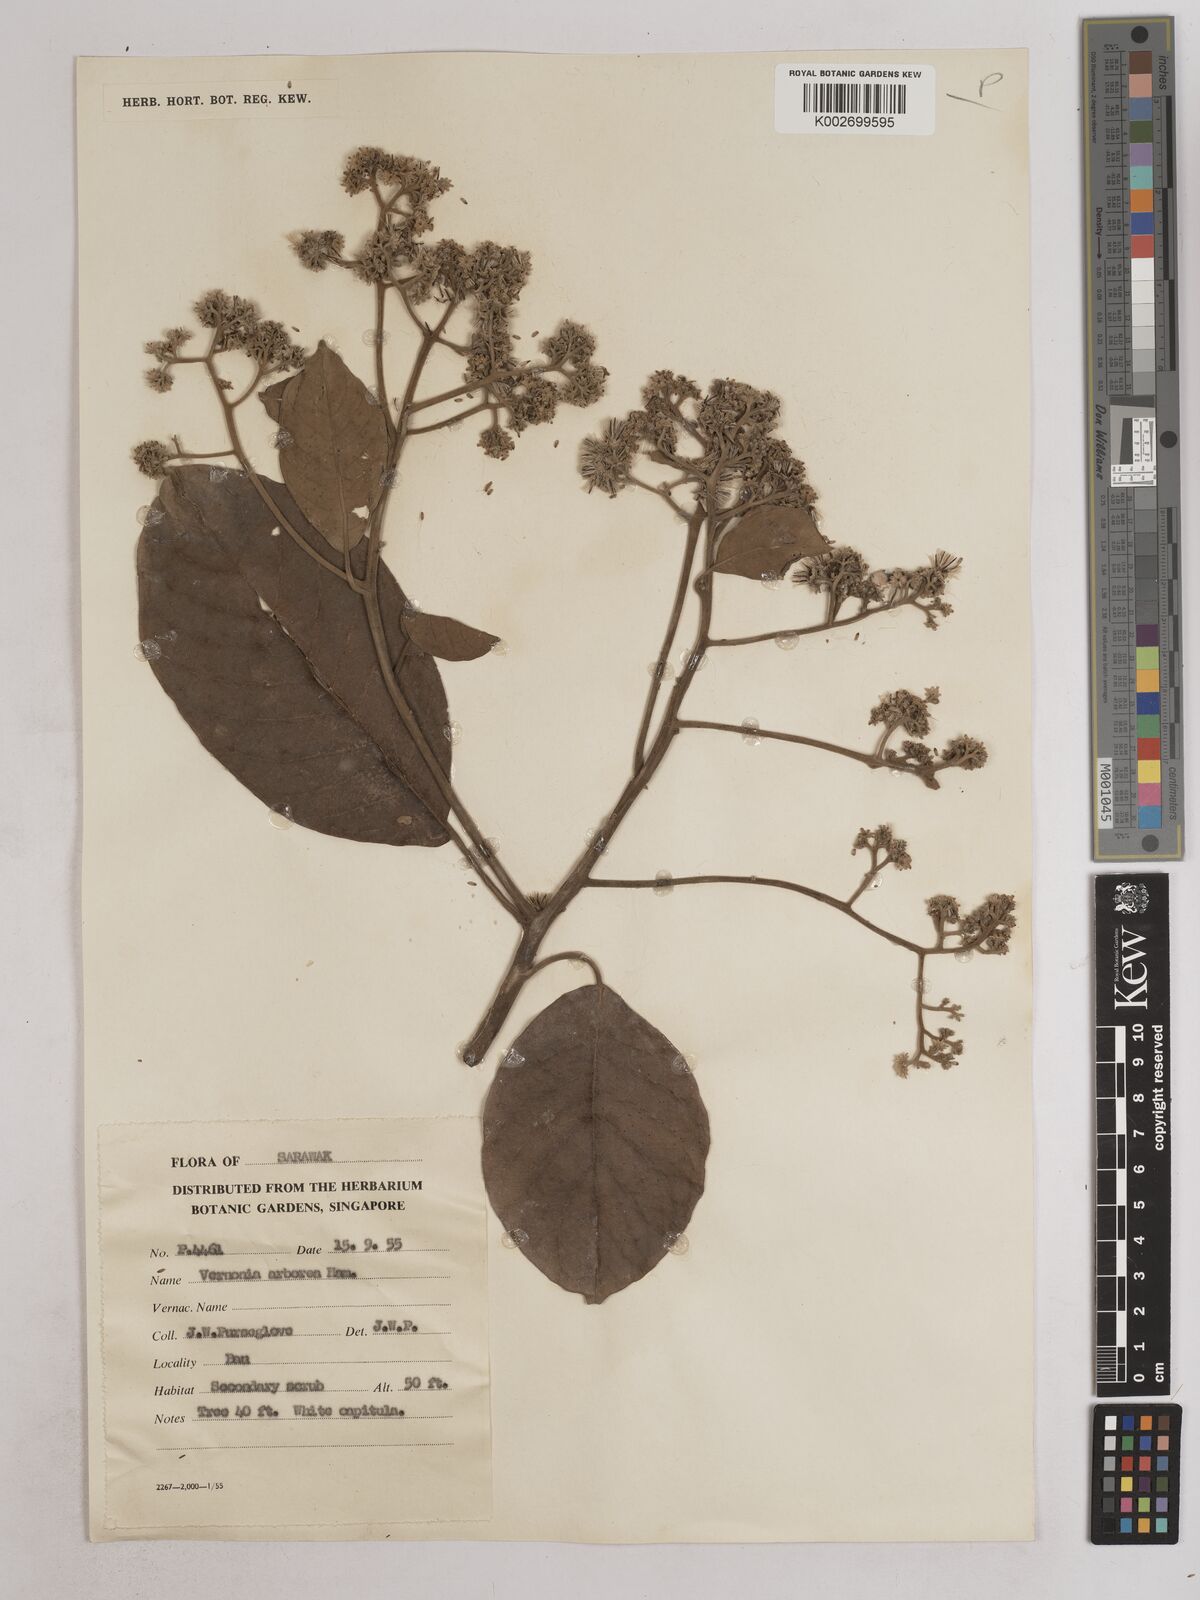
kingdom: Plantae
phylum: Tracheophyta
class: Magnoliopsida
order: Asterales
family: Asteraceae
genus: Strobocalyx
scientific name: Strobocalyx arborea
